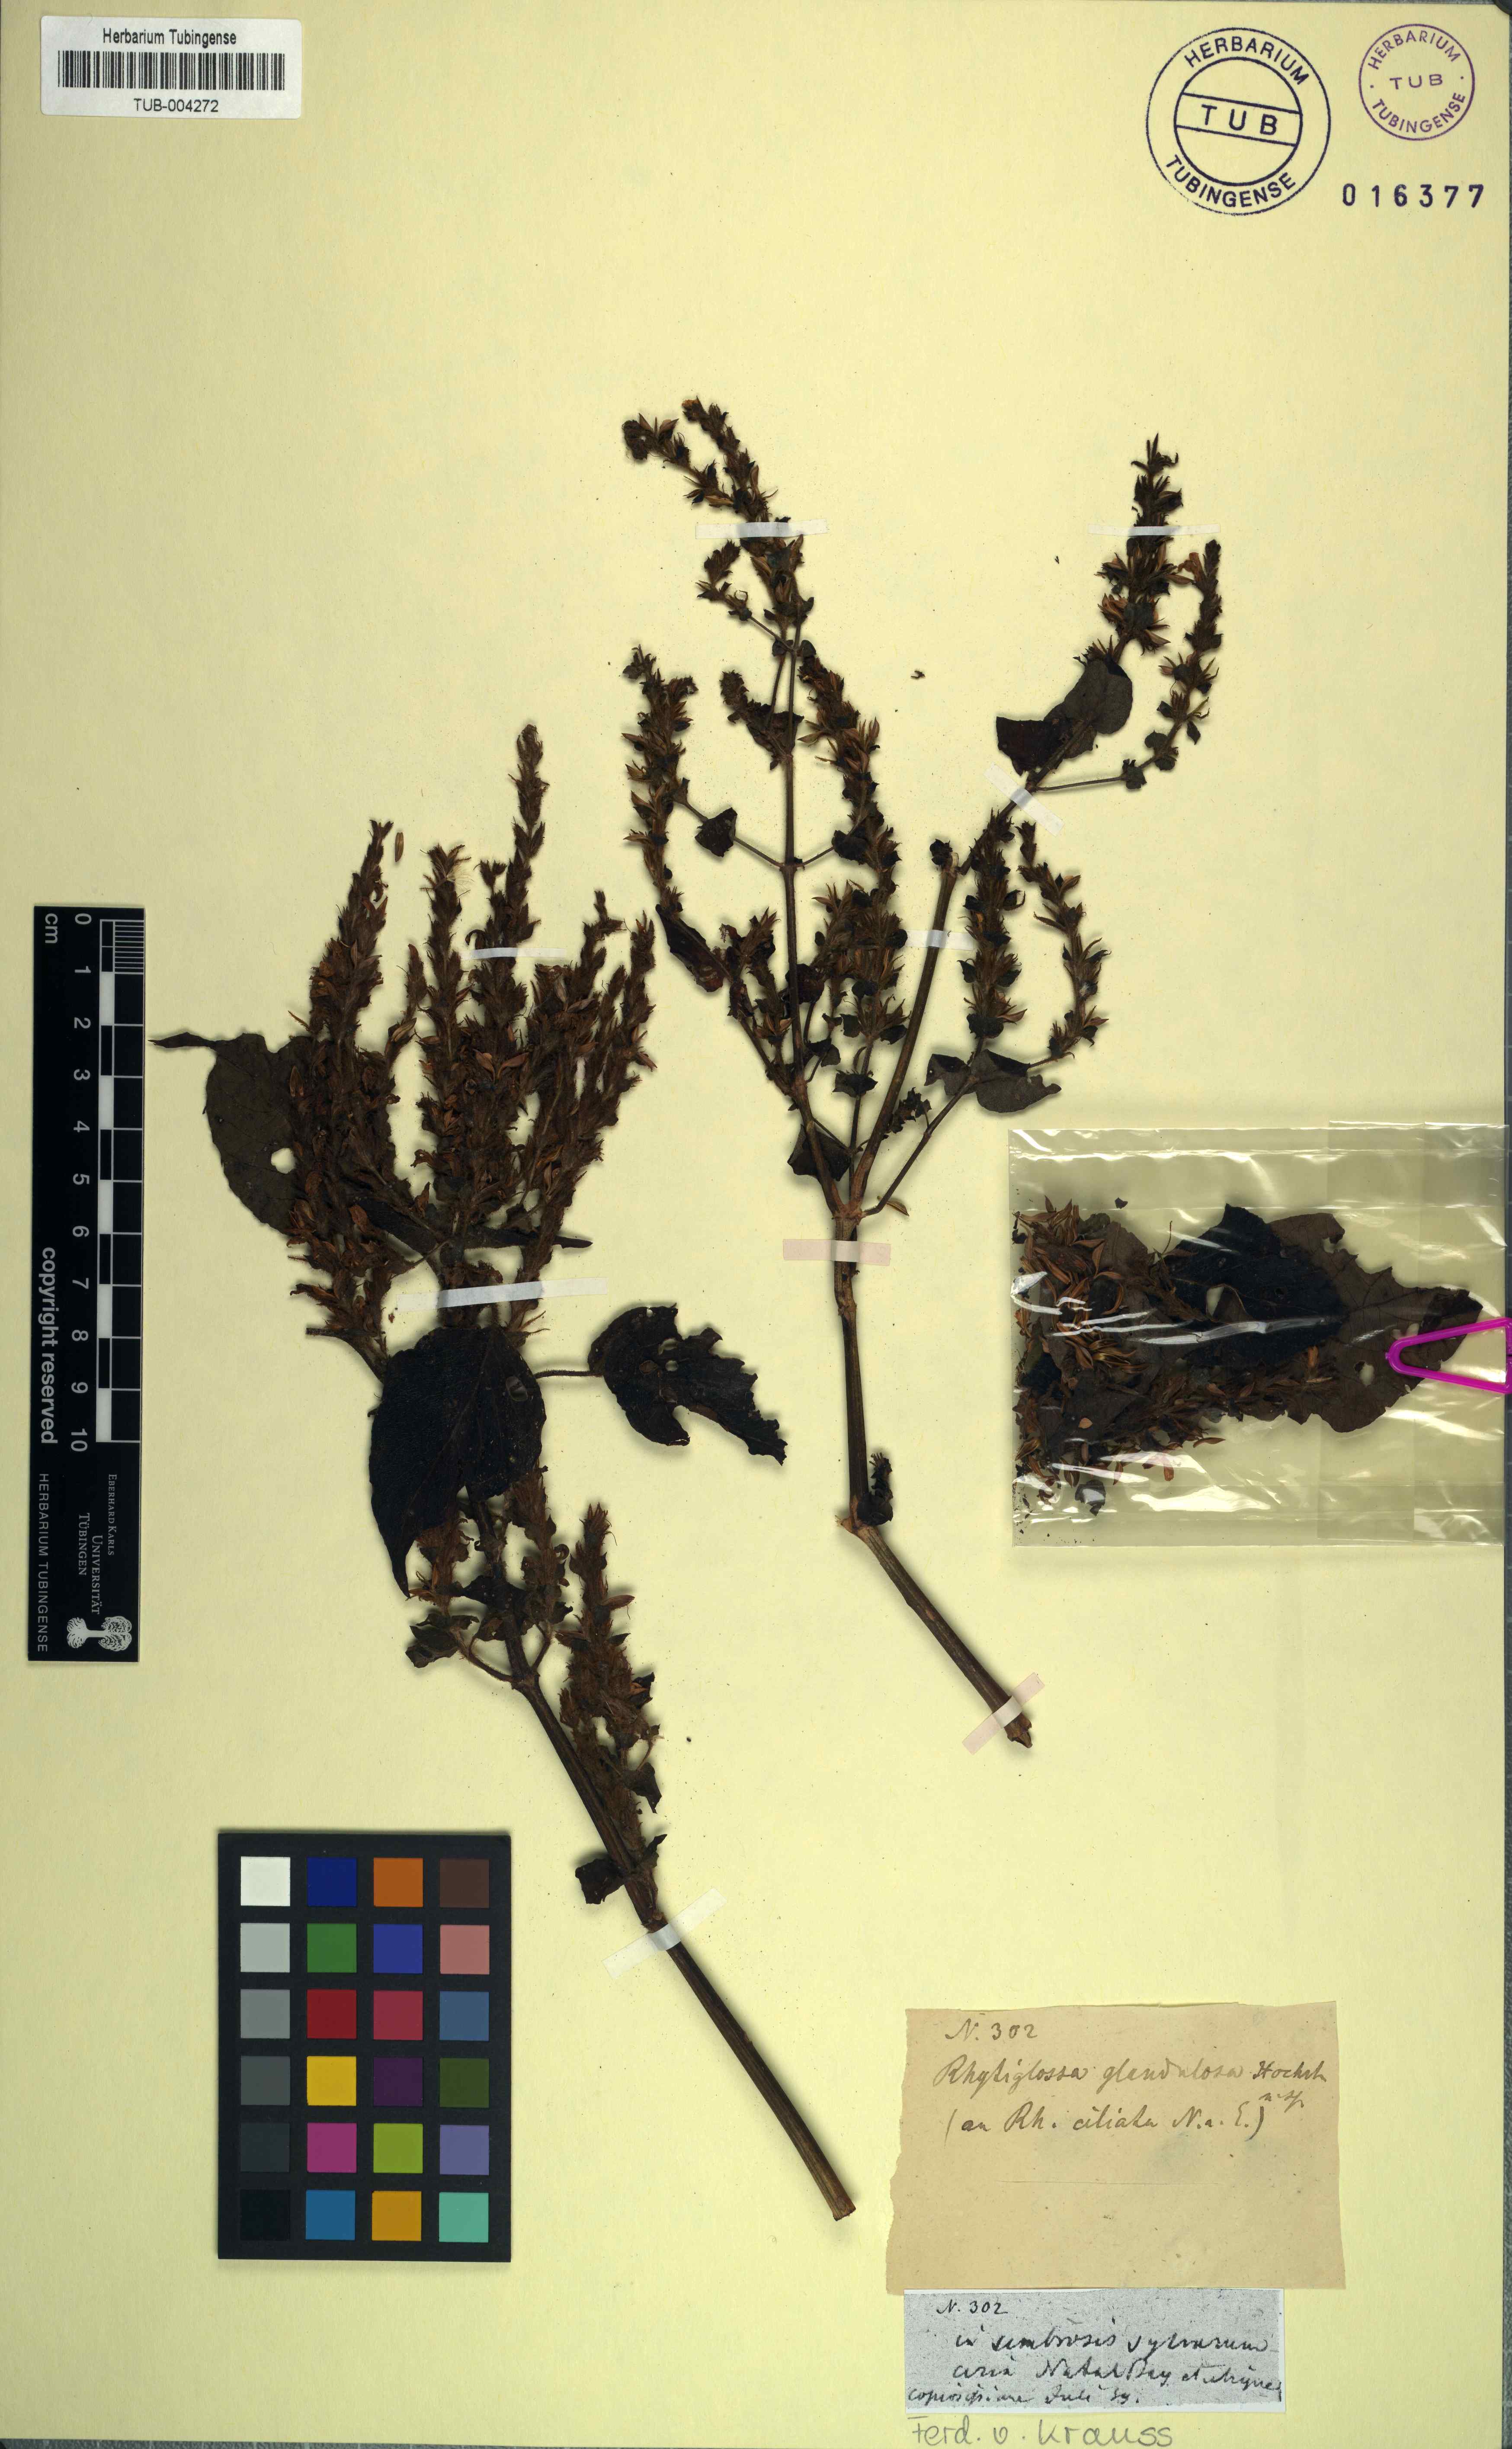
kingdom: Plantae
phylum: Tracheophyta
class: Magnoliopsida
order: Lamiales
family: Acanthaceae
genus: Ruellia
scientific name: Ruellia blechioides
